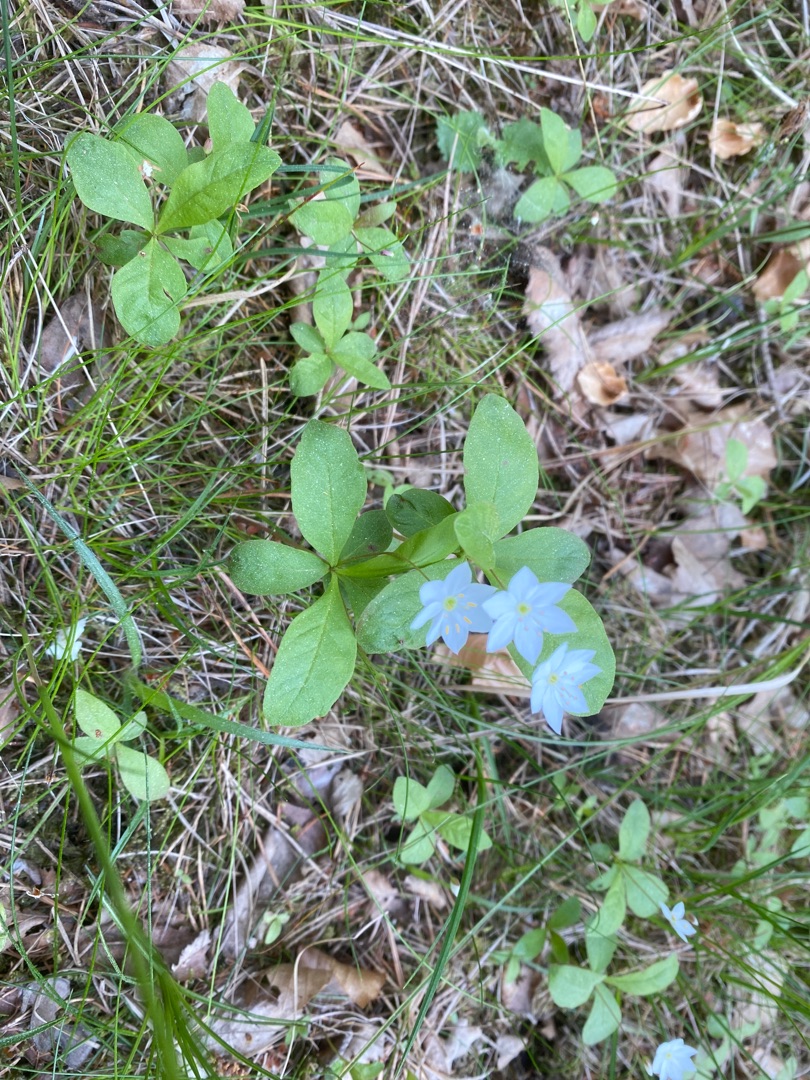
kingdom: Plantae
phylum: Tracheophyta
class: Magnoliopsida
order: Ericales
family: Primulaceae
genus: Lysimachia
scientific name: Lysimachia europaea
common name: Skovstjerne
